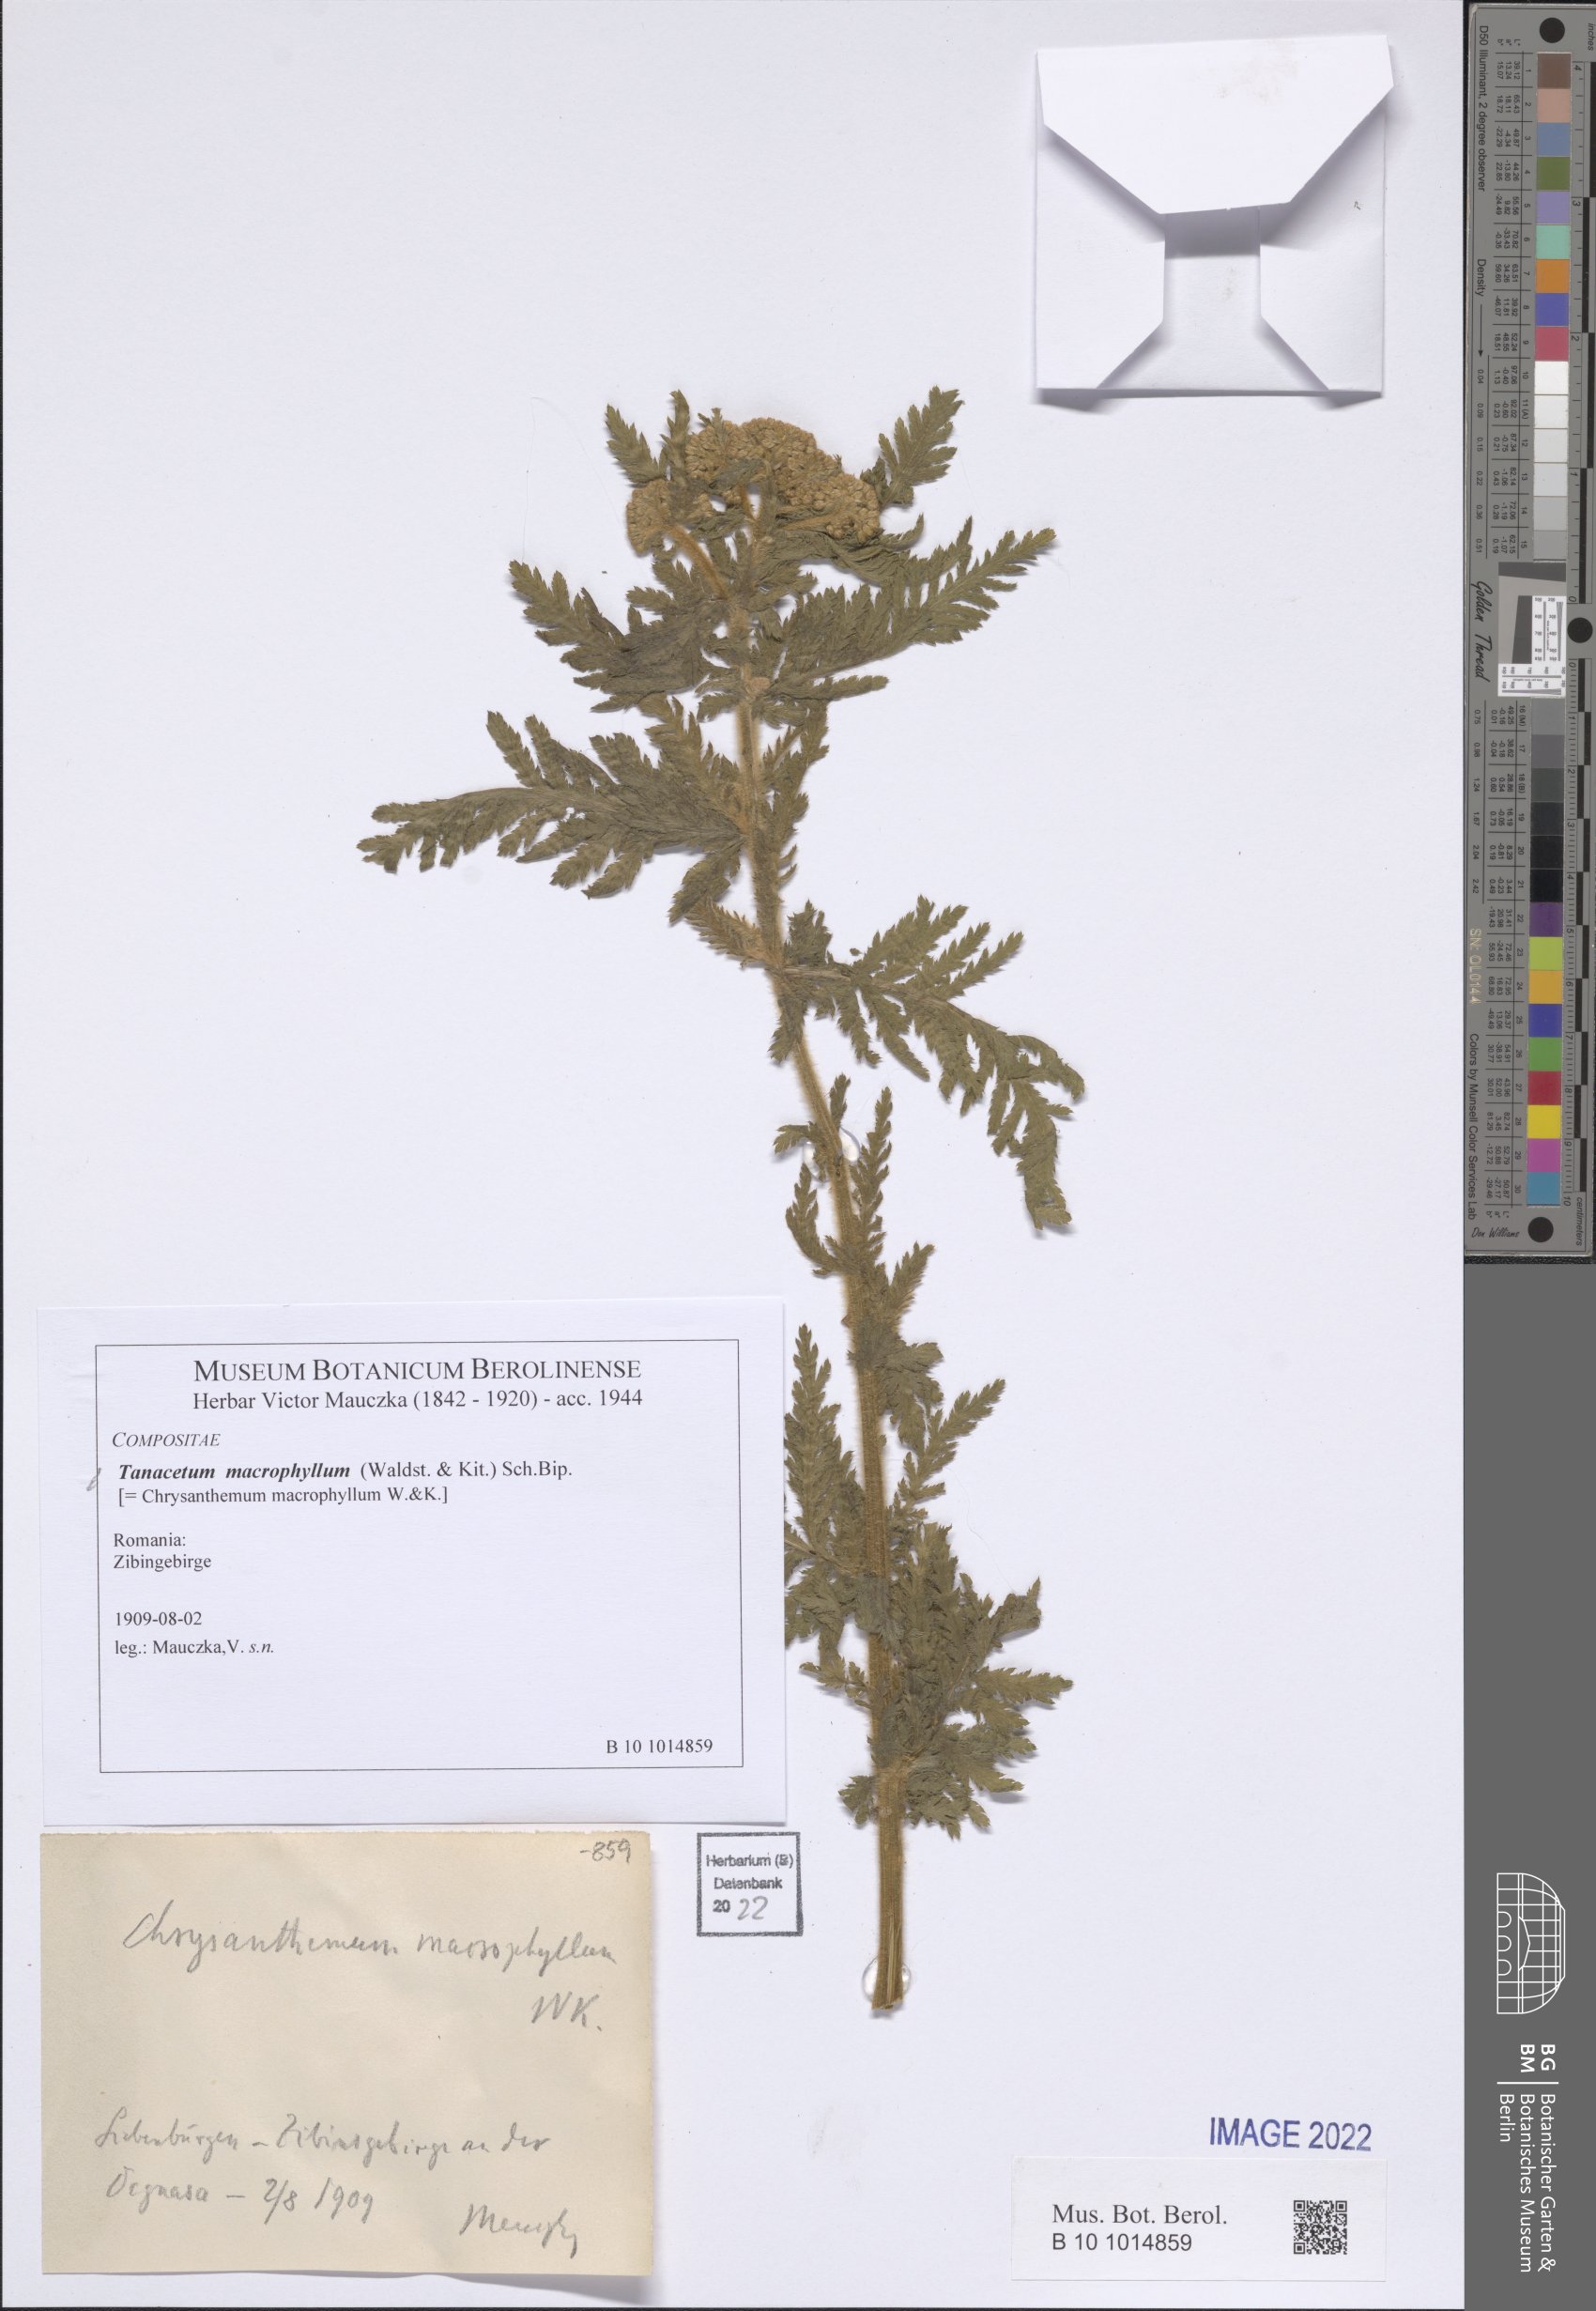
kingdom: Plantae
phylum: Tracheophyta
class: Magnoliopsida
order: Asterales
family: Asteraceae
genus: Tanacetum
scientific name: Tanacetum macrophyllum
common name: Rayed tansy
